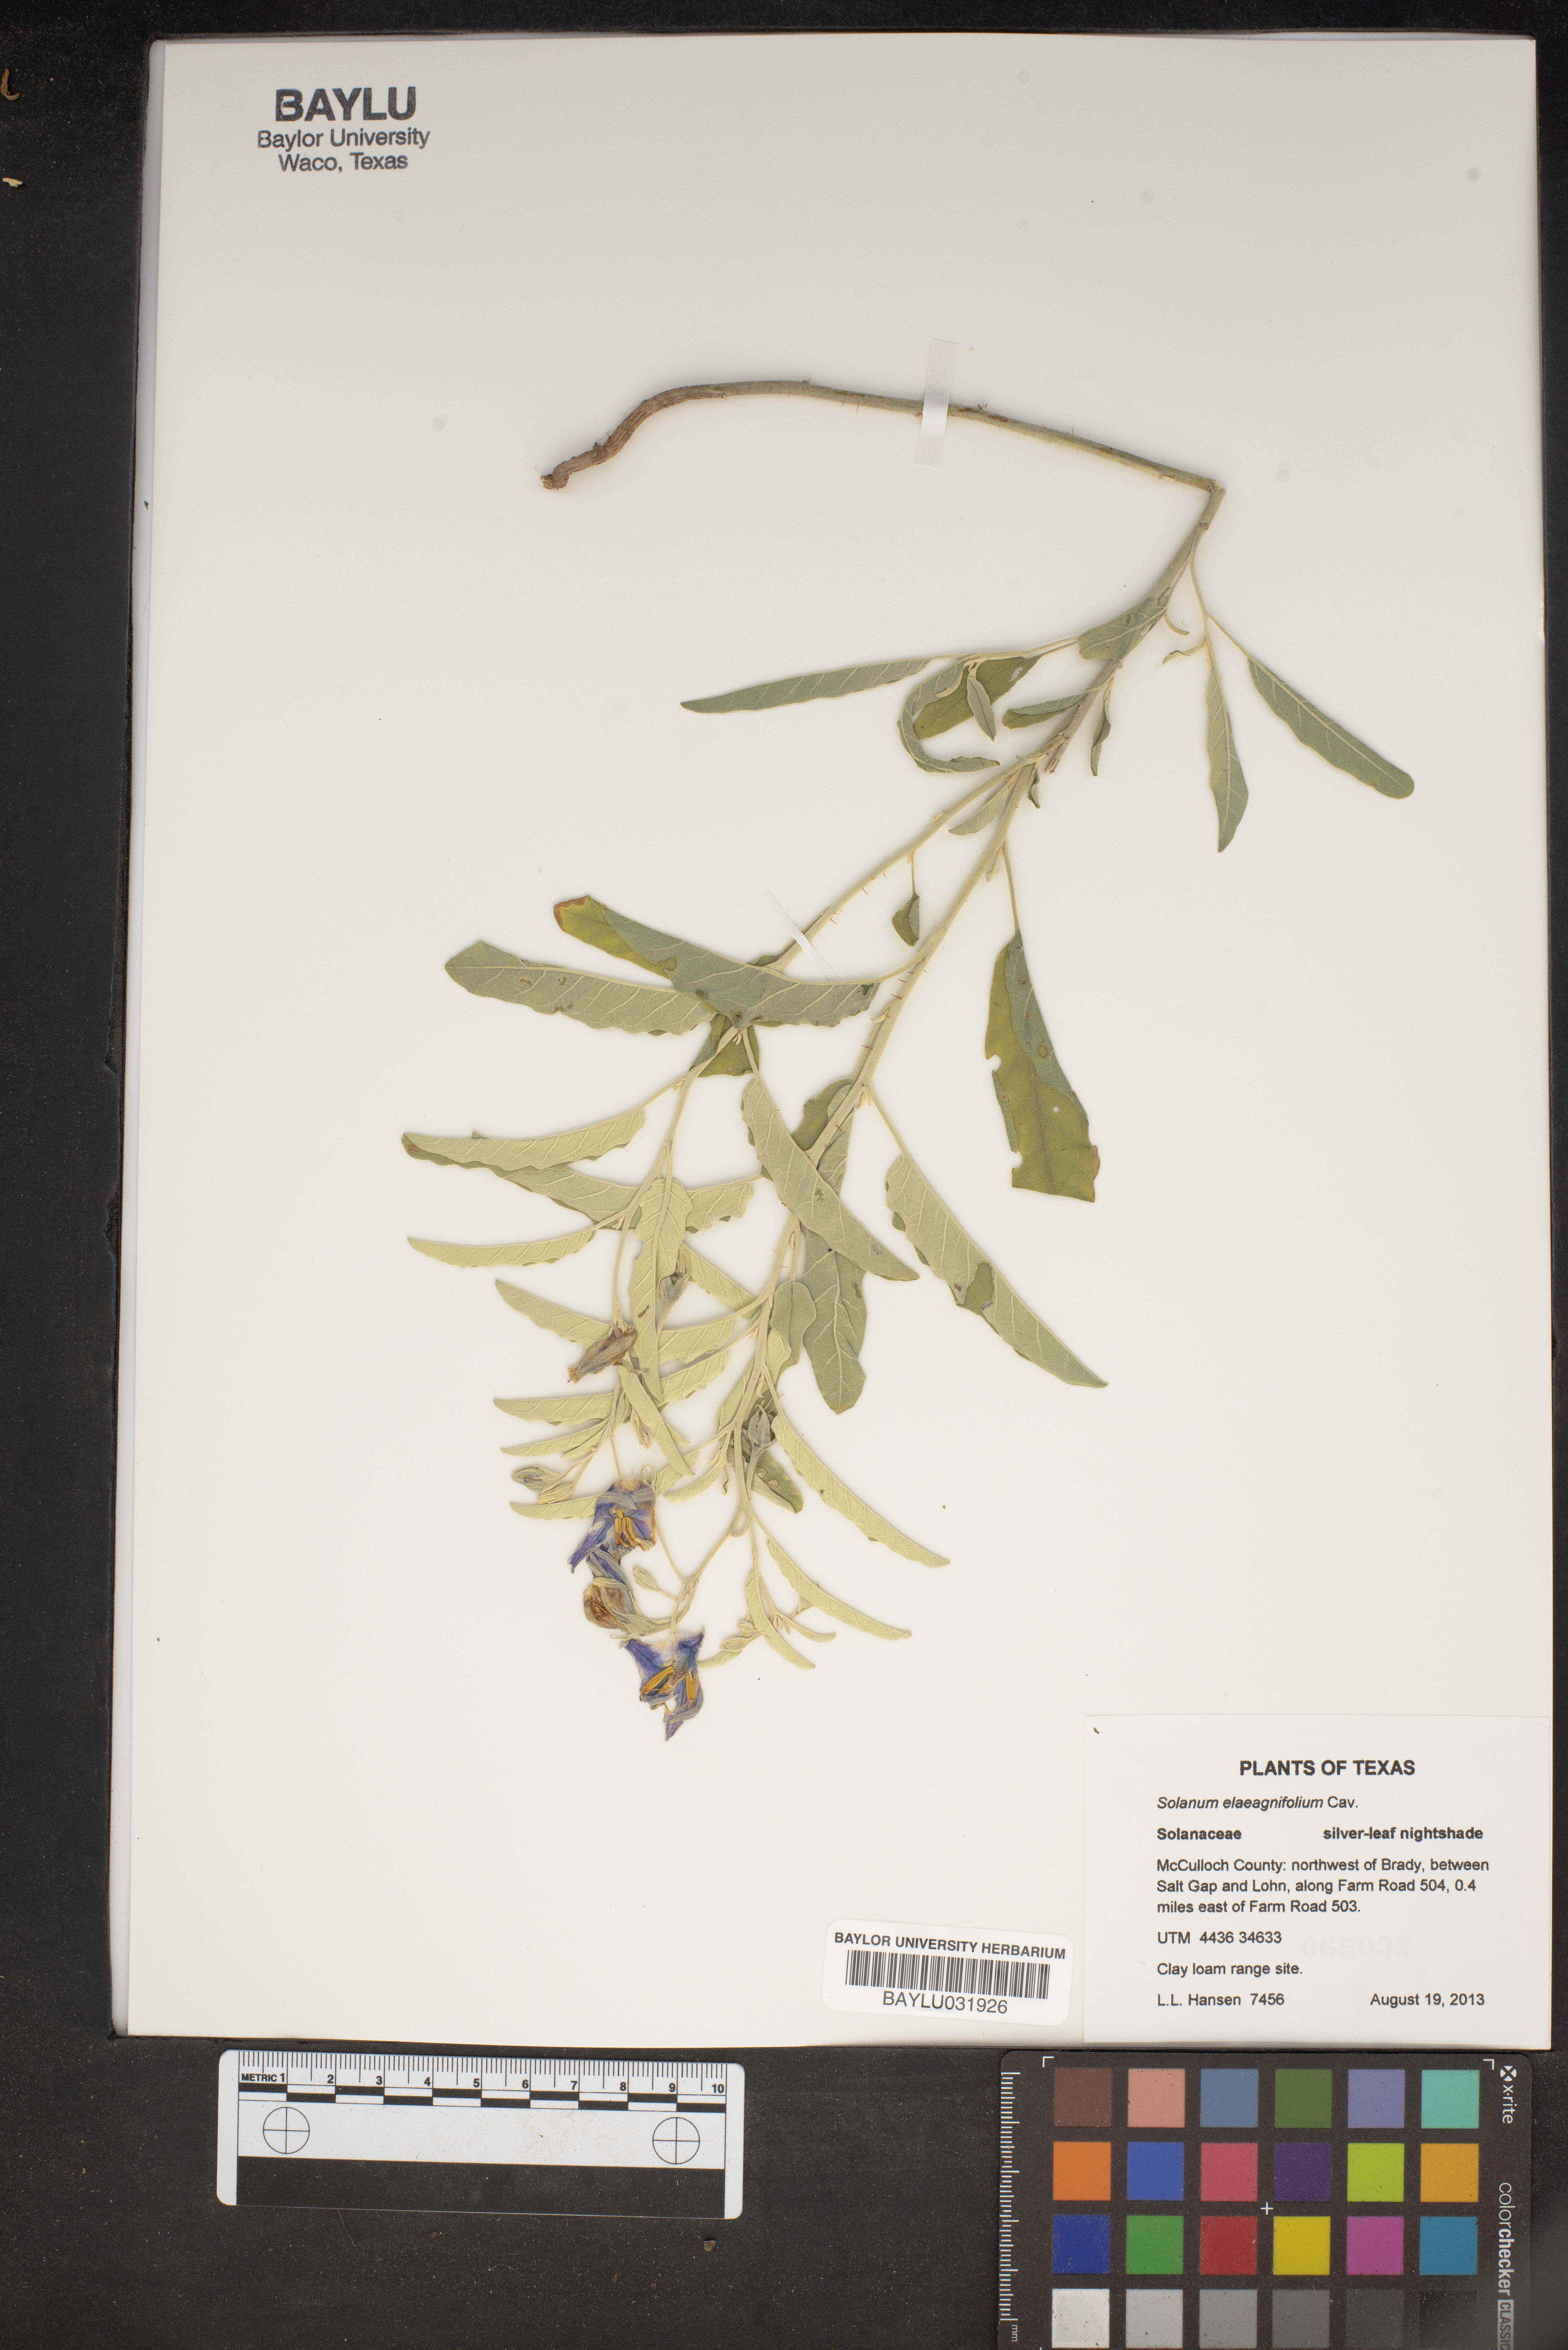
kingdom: Plantae
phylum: Tracheophyta
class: Magnoliopsida
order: Solanales
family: Solanaceae
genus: Solanum
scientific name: Solanum elaeagnifolium
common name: Silverleaf nightshade
